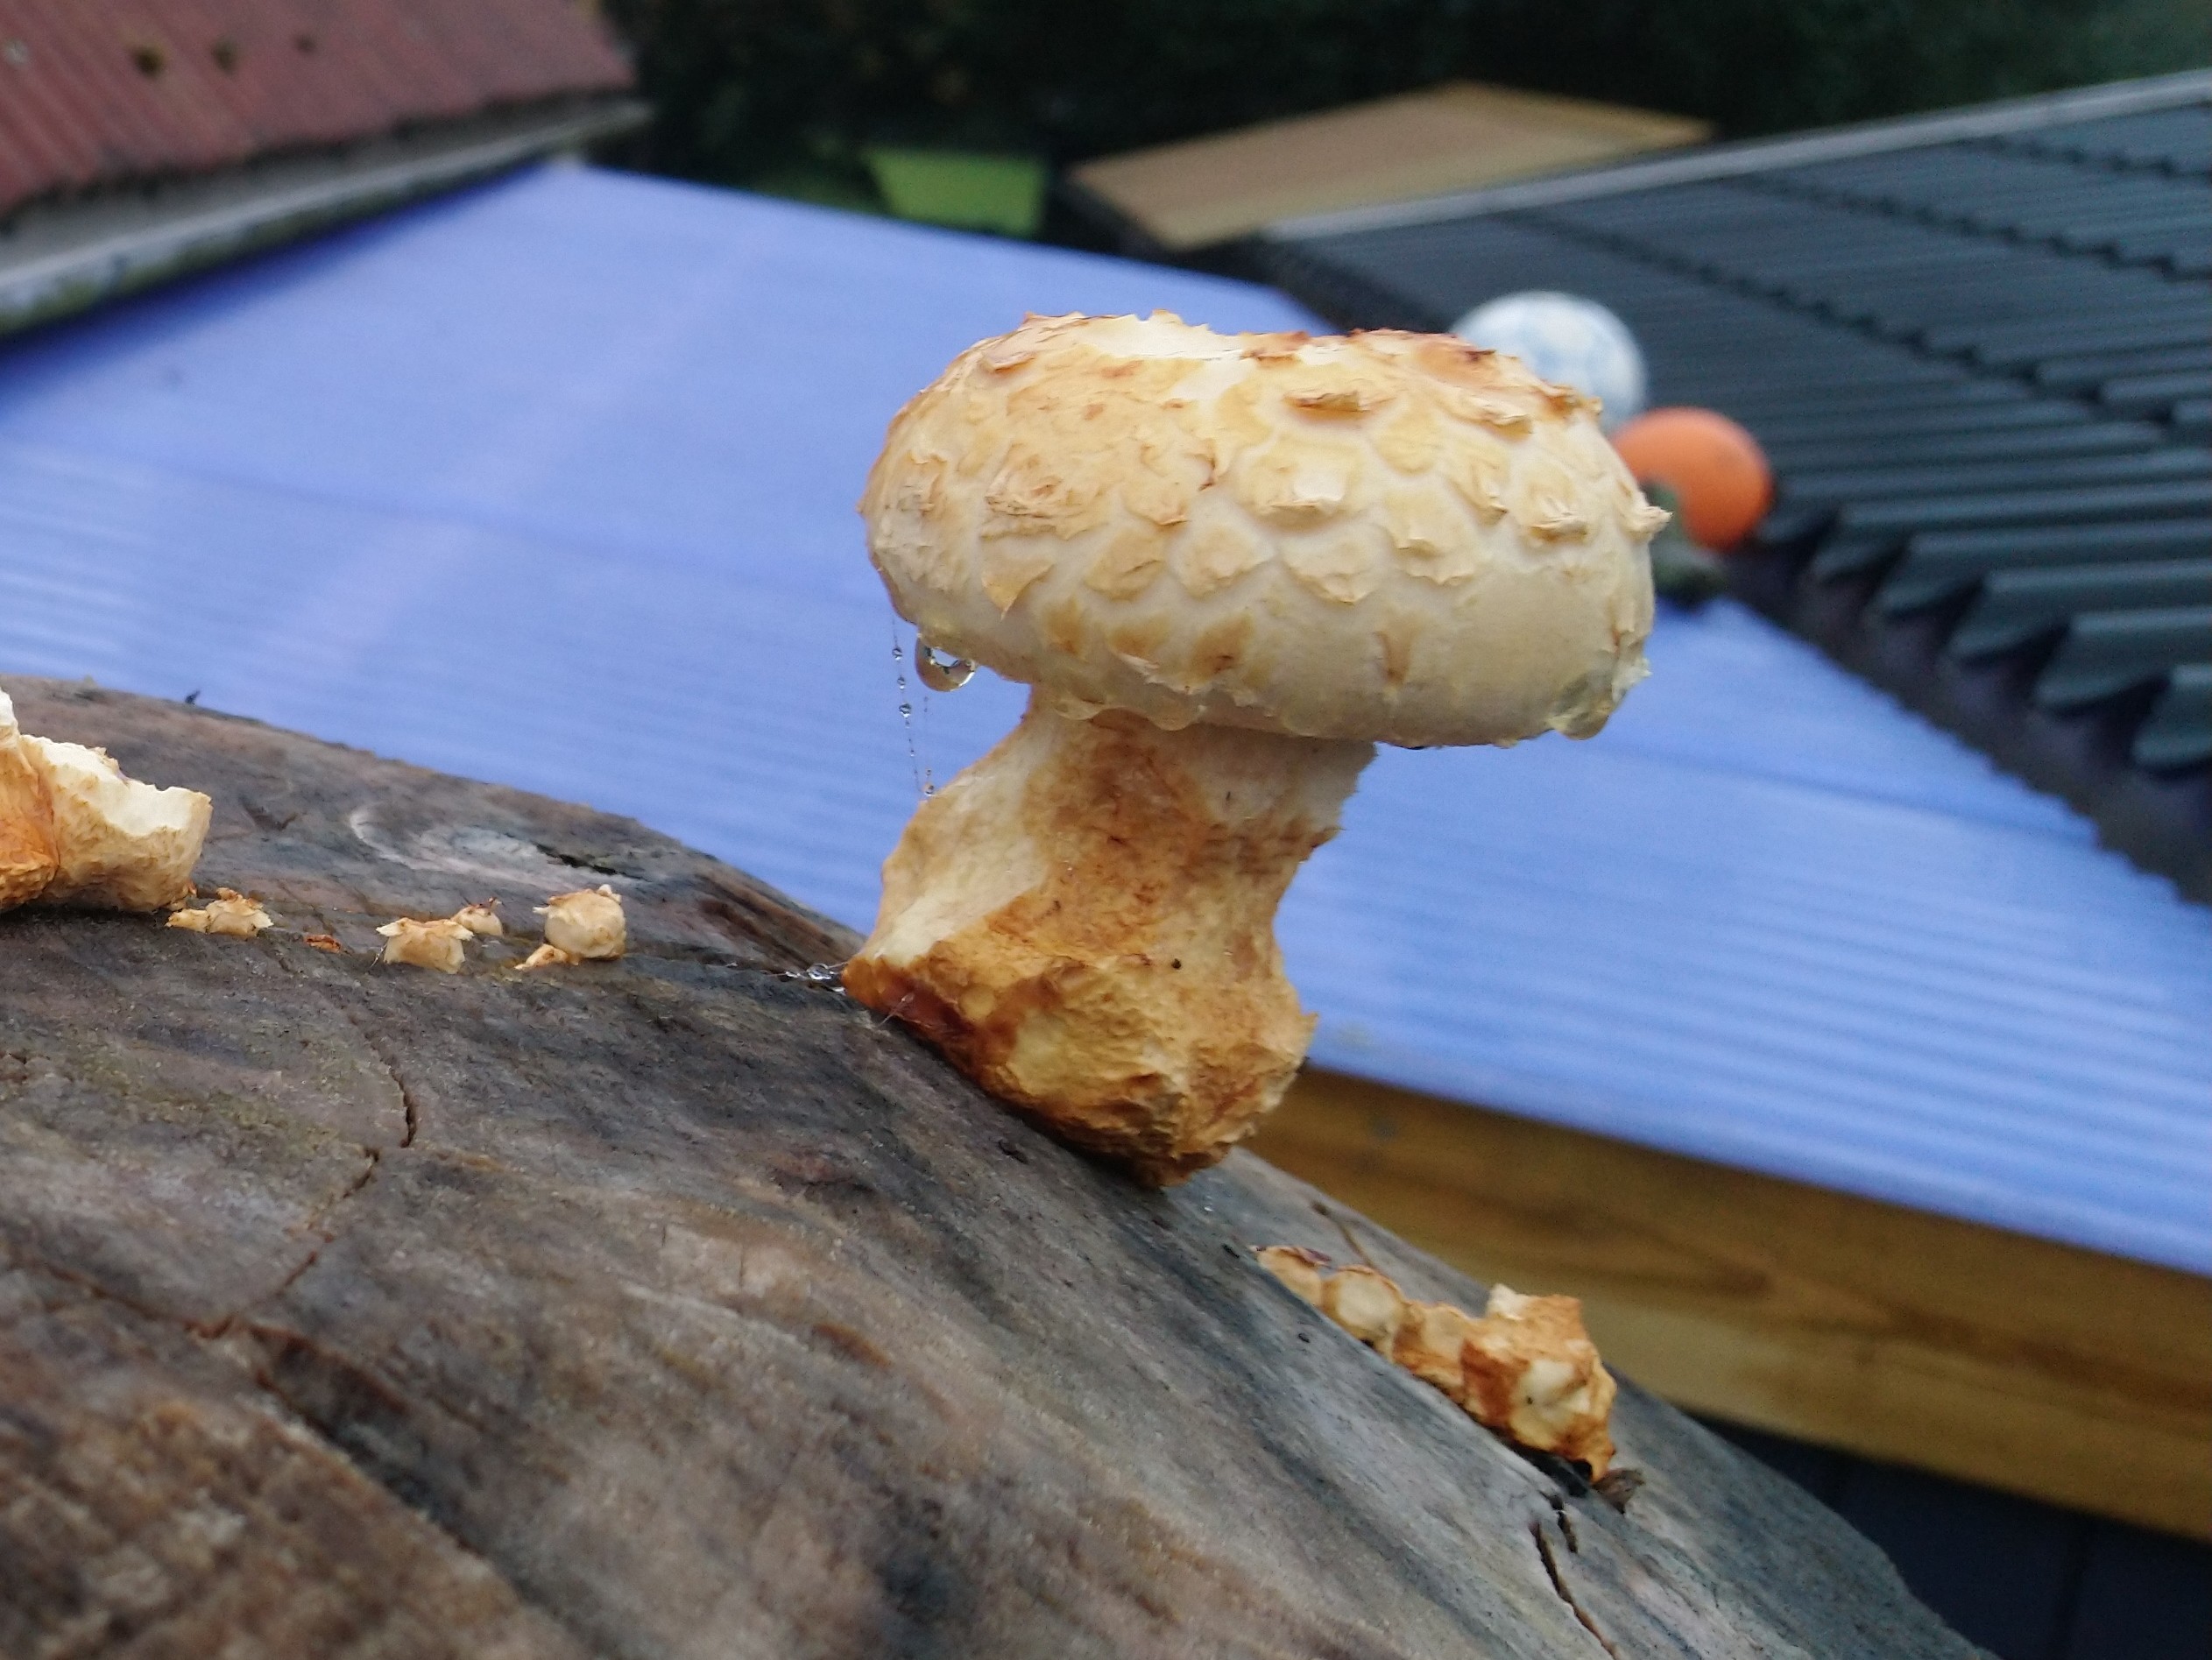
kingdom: Fungi
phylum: Basidiomycota
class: Agaricomycetes
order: Agaricales
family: Strophariaceae
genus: Pholiota
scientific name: Pholiota populnea
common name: poppel-kæmpeskælhat
